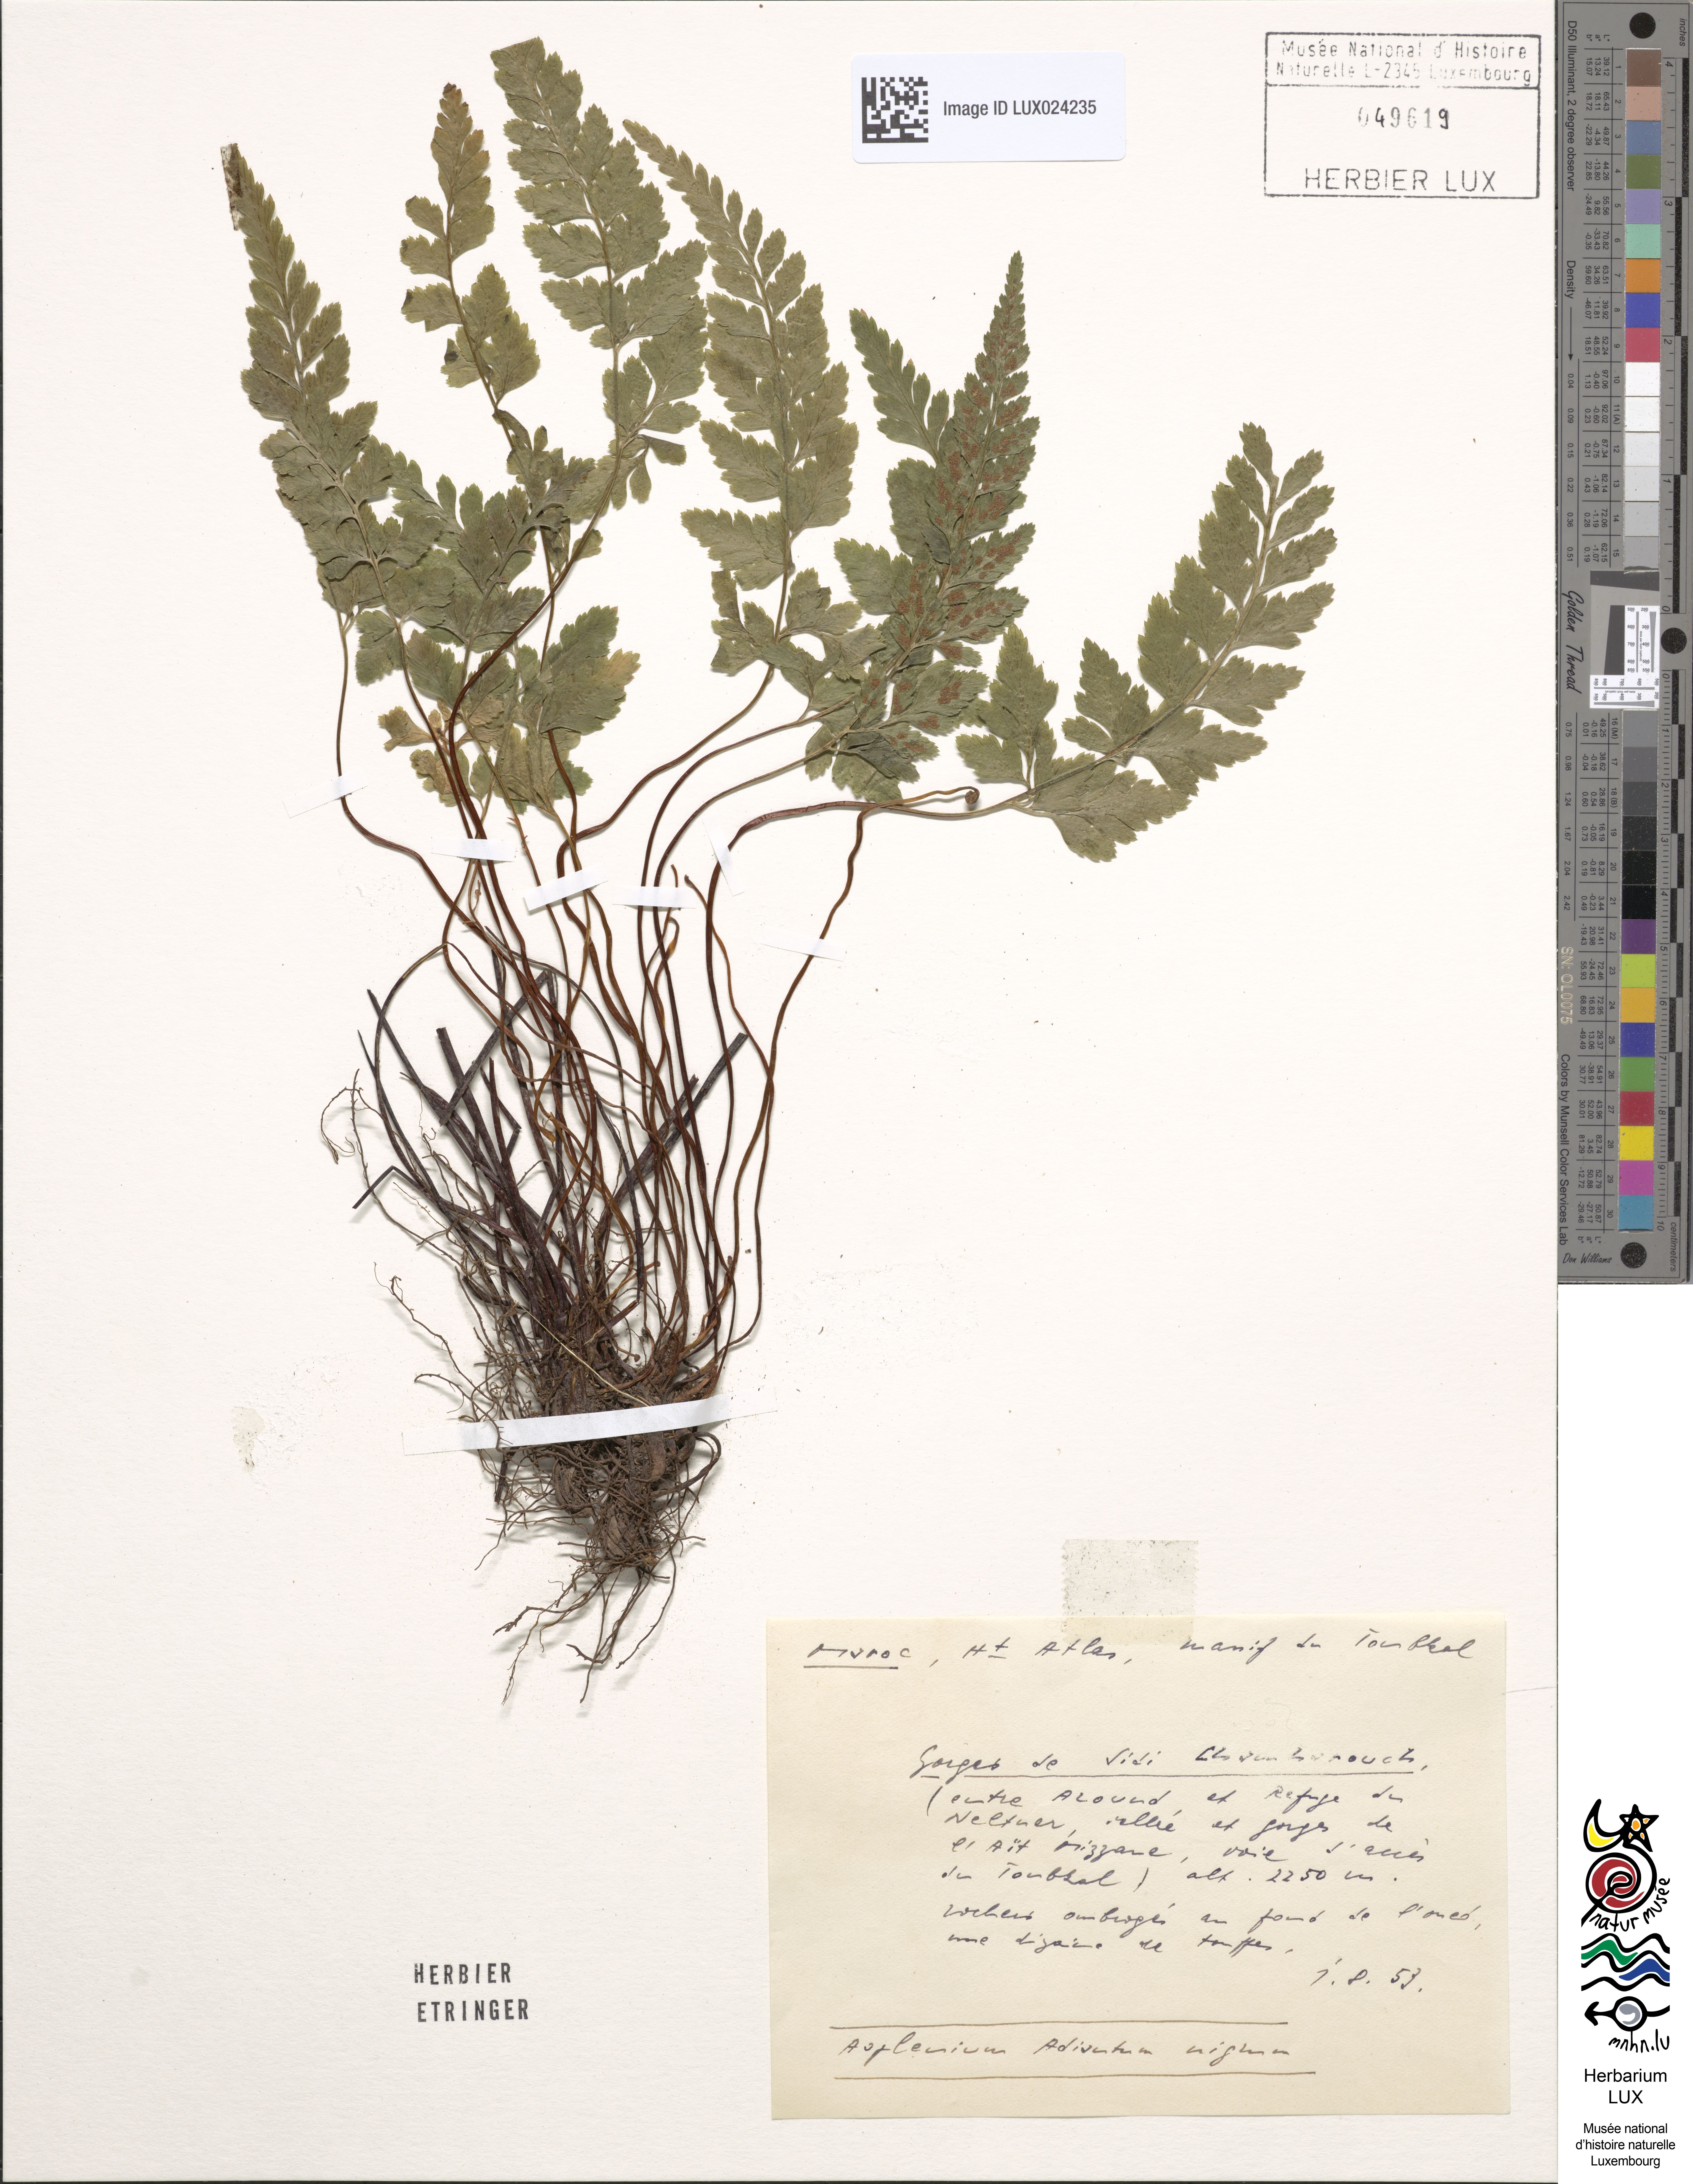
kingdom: Plantae
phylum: Tracheophyta
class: Polypodiopsida
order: Polypodiales
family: Aspleniaceae
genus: Asplenium
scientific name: Asplenium adiantum-nigrum
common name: Black spleenwort
